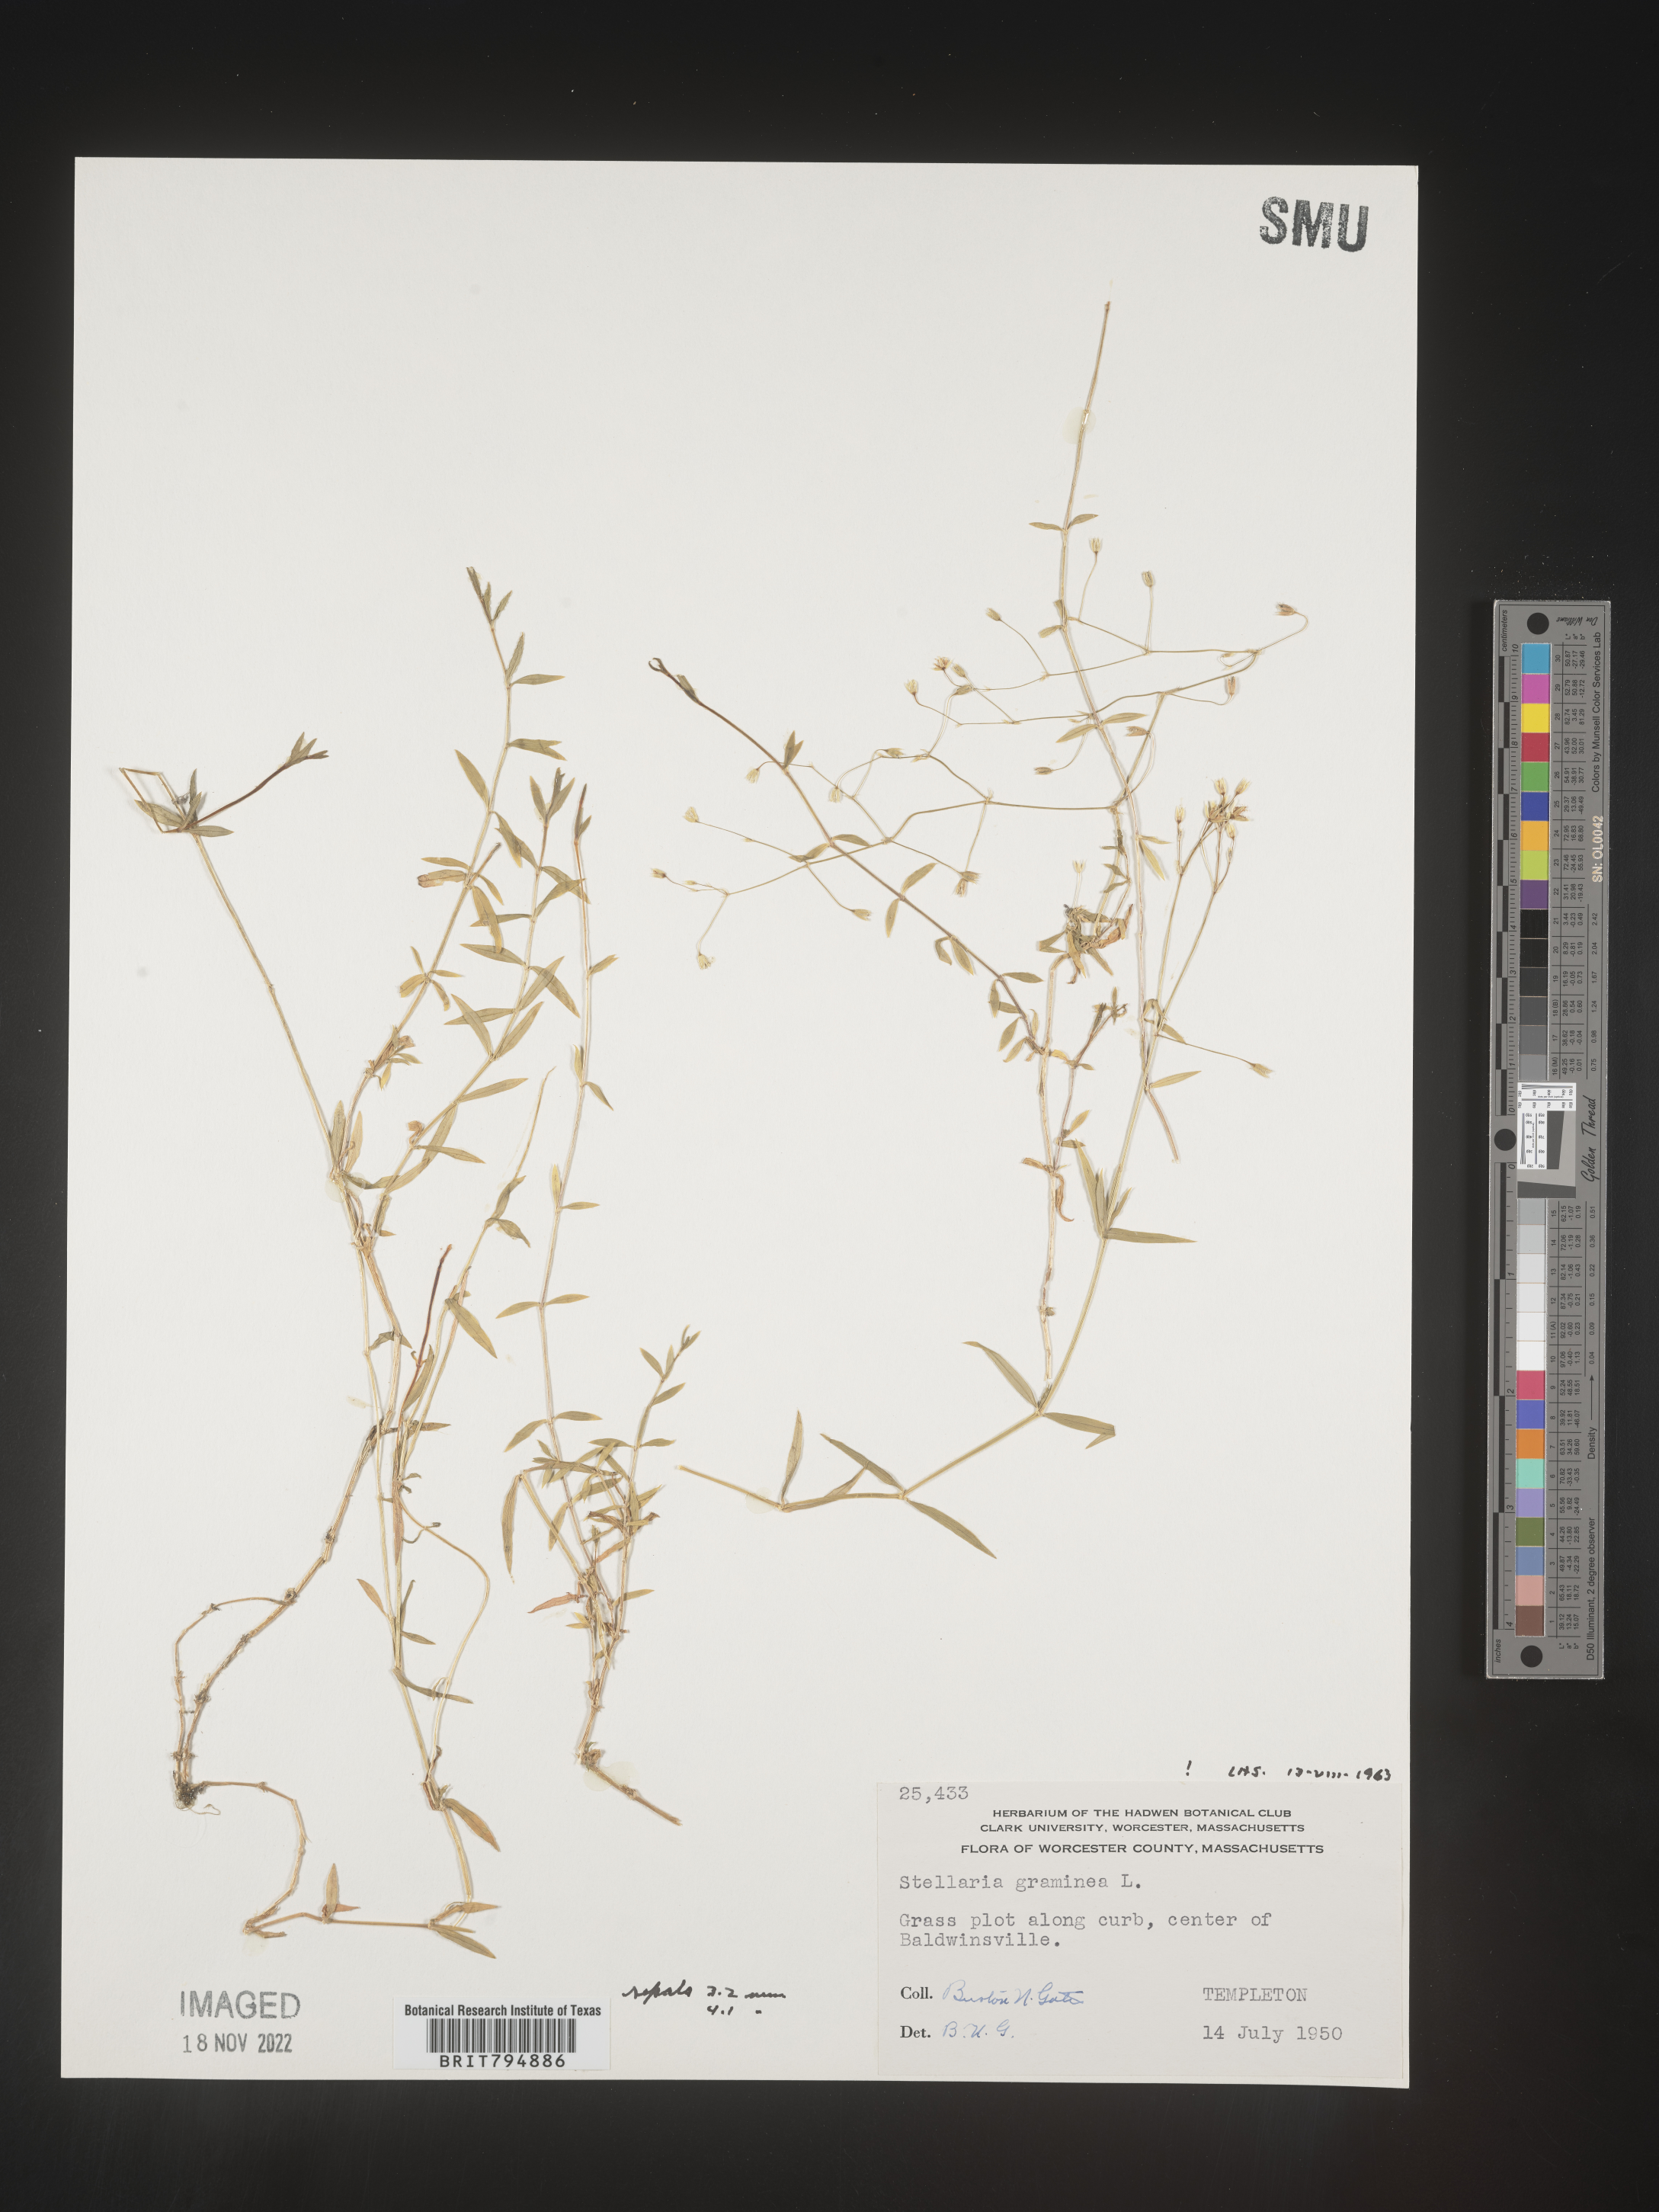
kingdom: Plantae
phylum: Tracheophyta
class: Magnoliopsida
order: Caryophyllales
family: Caryophyllaceae
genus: Stellaria
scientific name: Stellaria graminea
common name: Grass-like starwort
